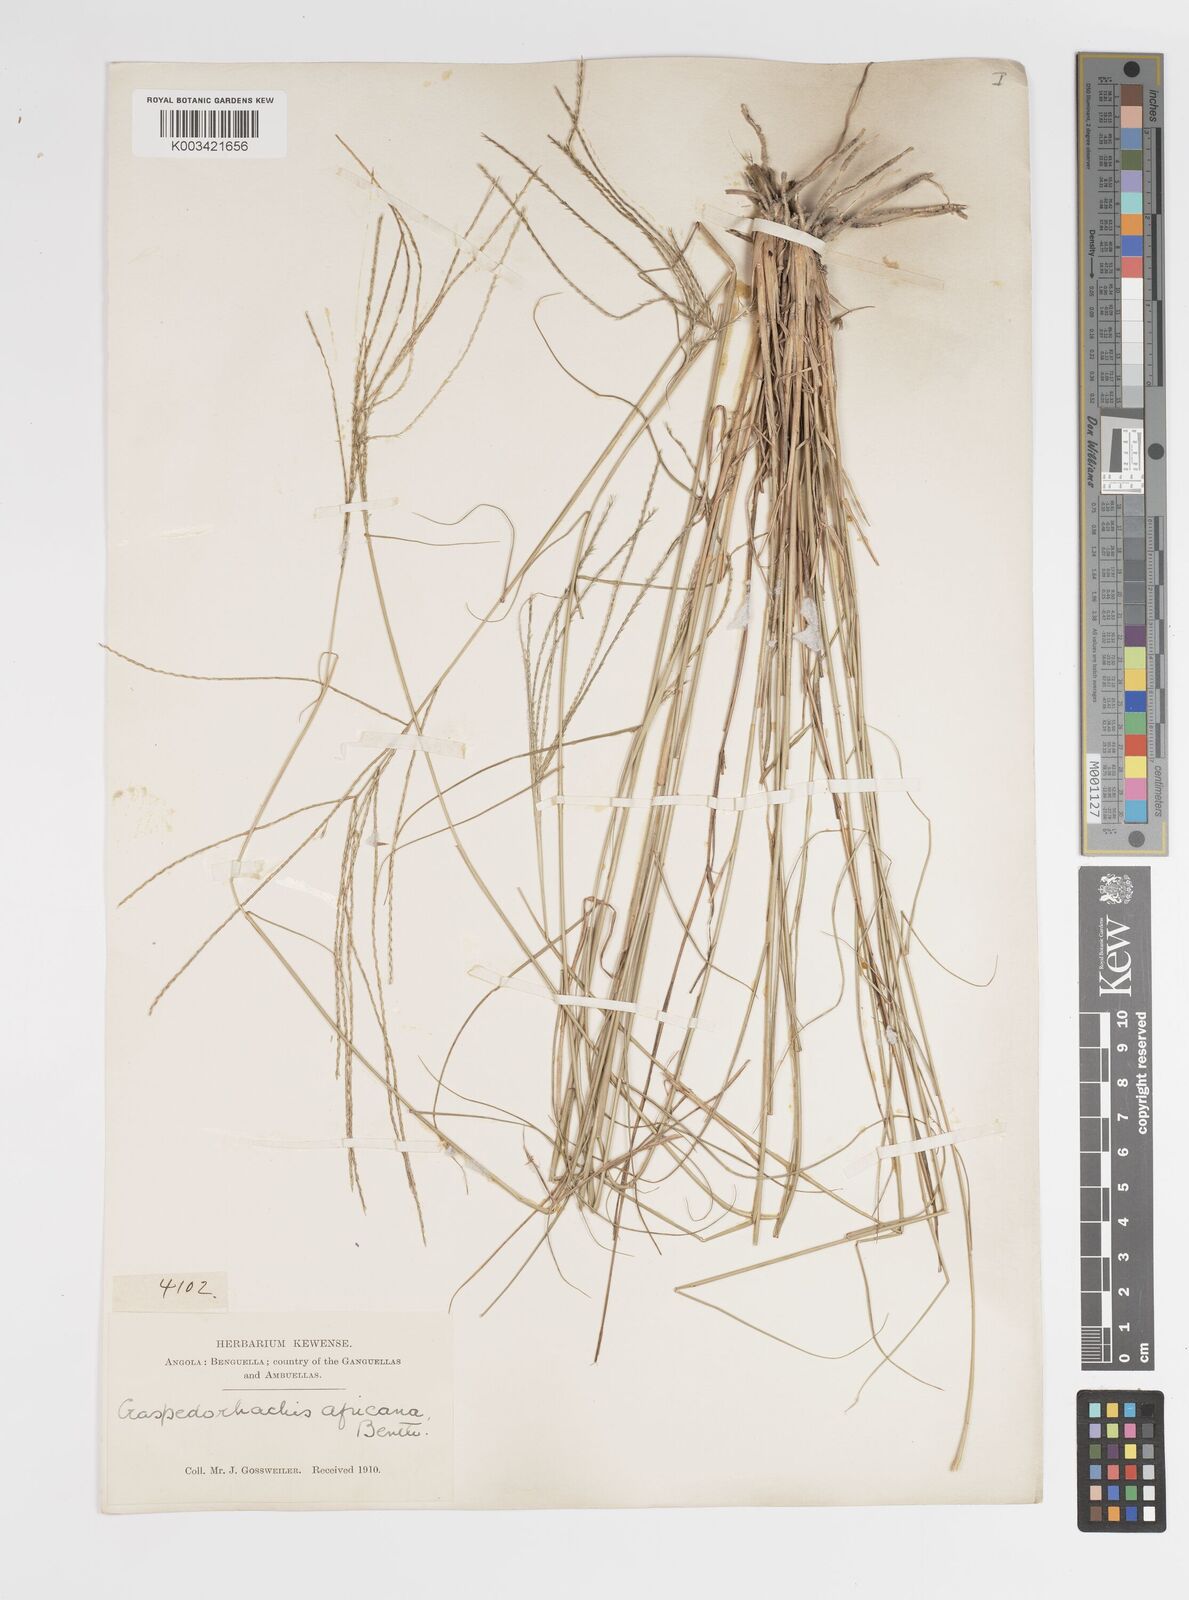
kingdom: Plantae
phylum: Tracheophyta
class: Liliopsida
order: Poales
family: Poaceae
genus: Craspedorhachis
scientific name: Craspedorhachis rhodesiana
